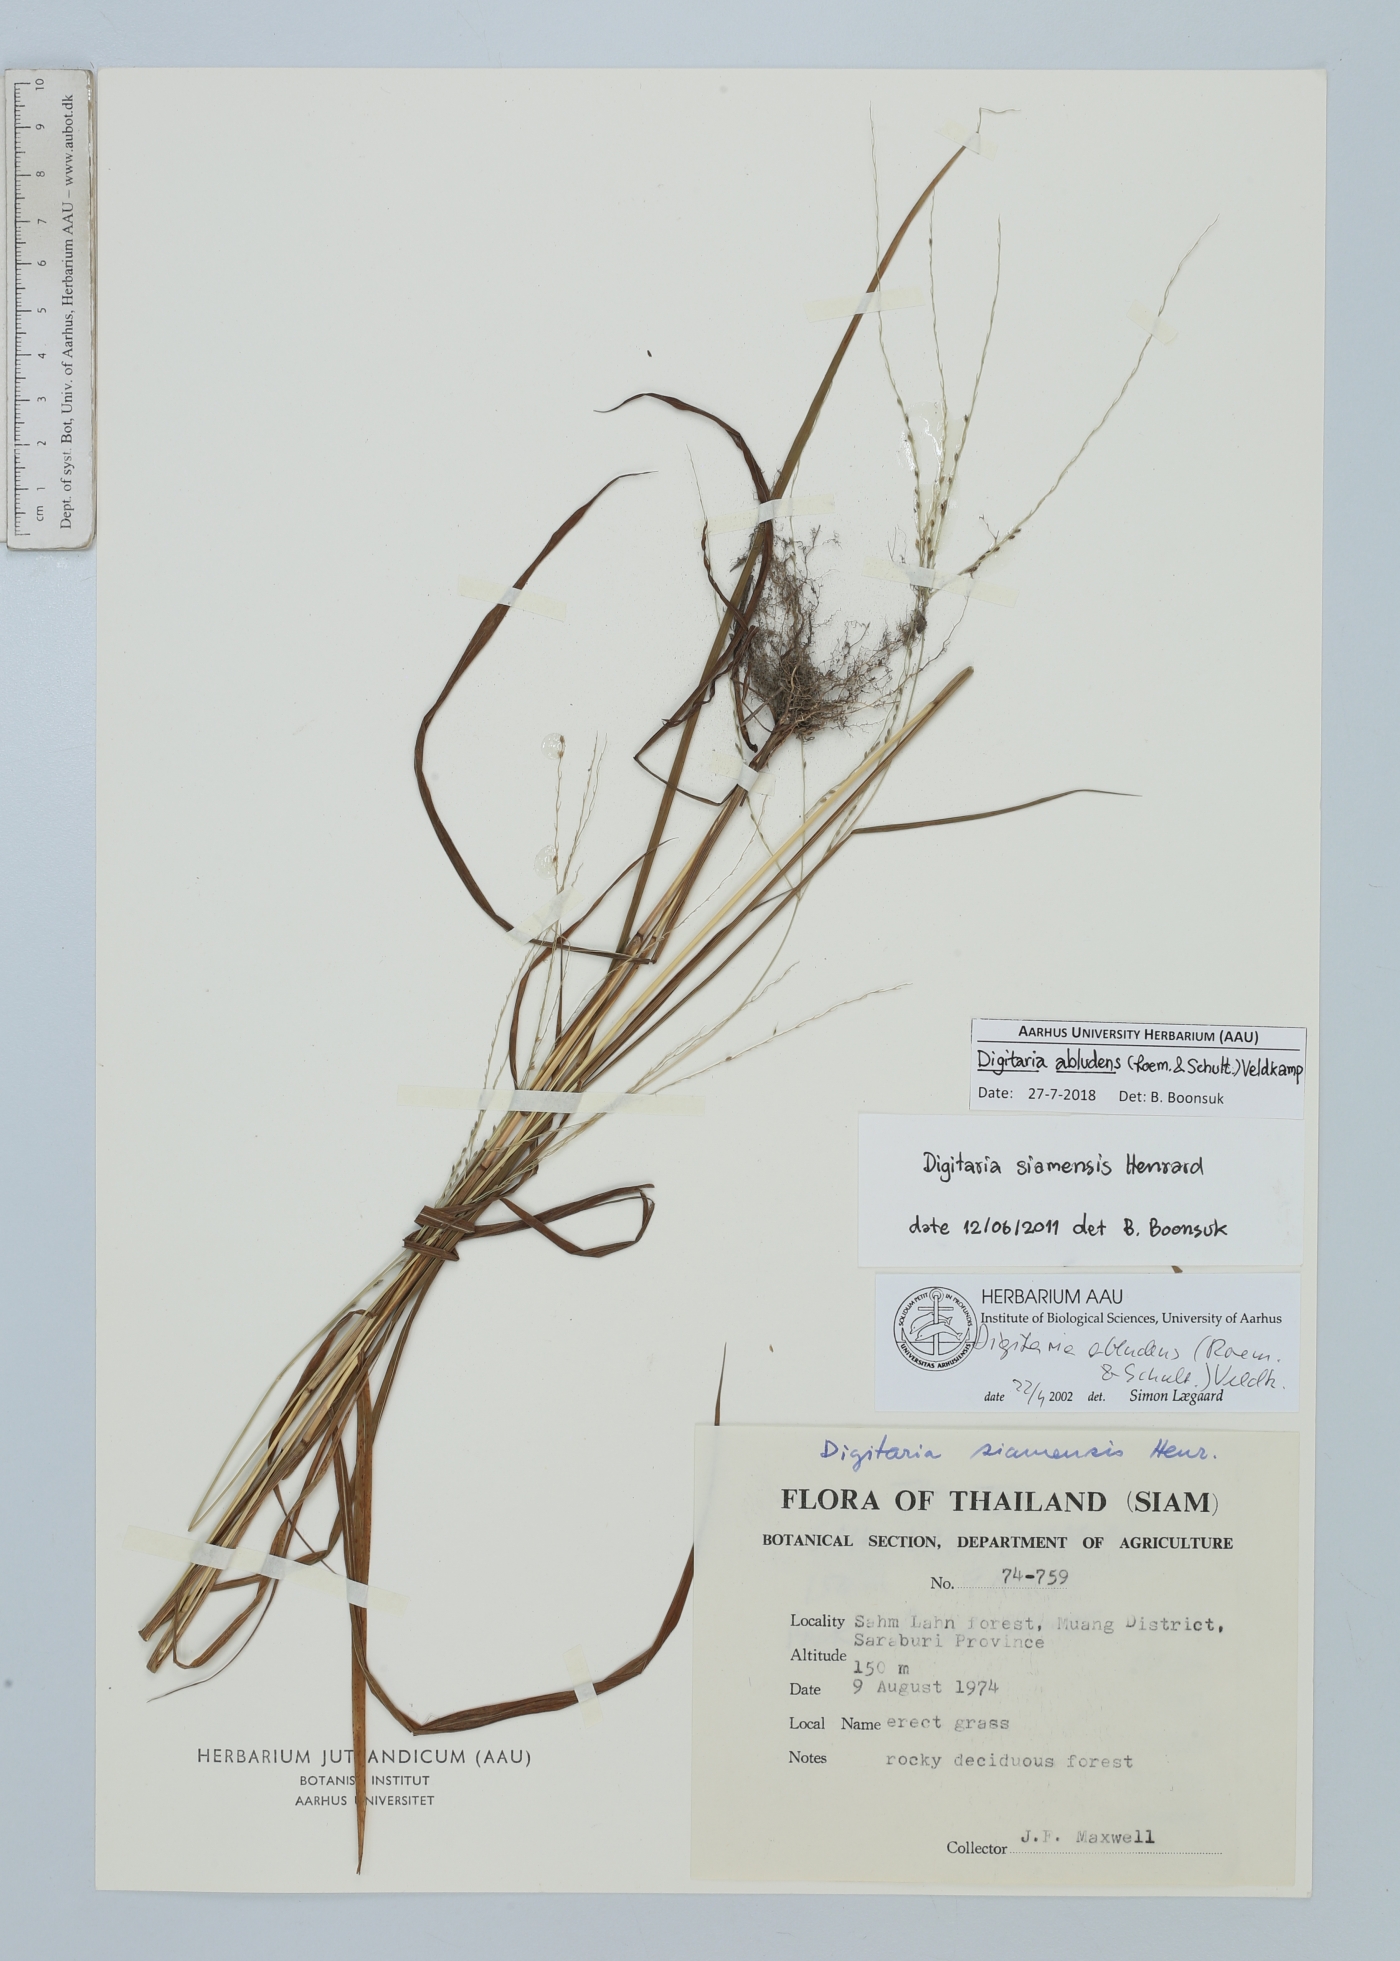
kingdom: Plantae
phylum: Tracheophyta
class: Liliopsida
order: Poales
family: Poaceae
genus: Digitaria
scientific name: Digitaria abludens
